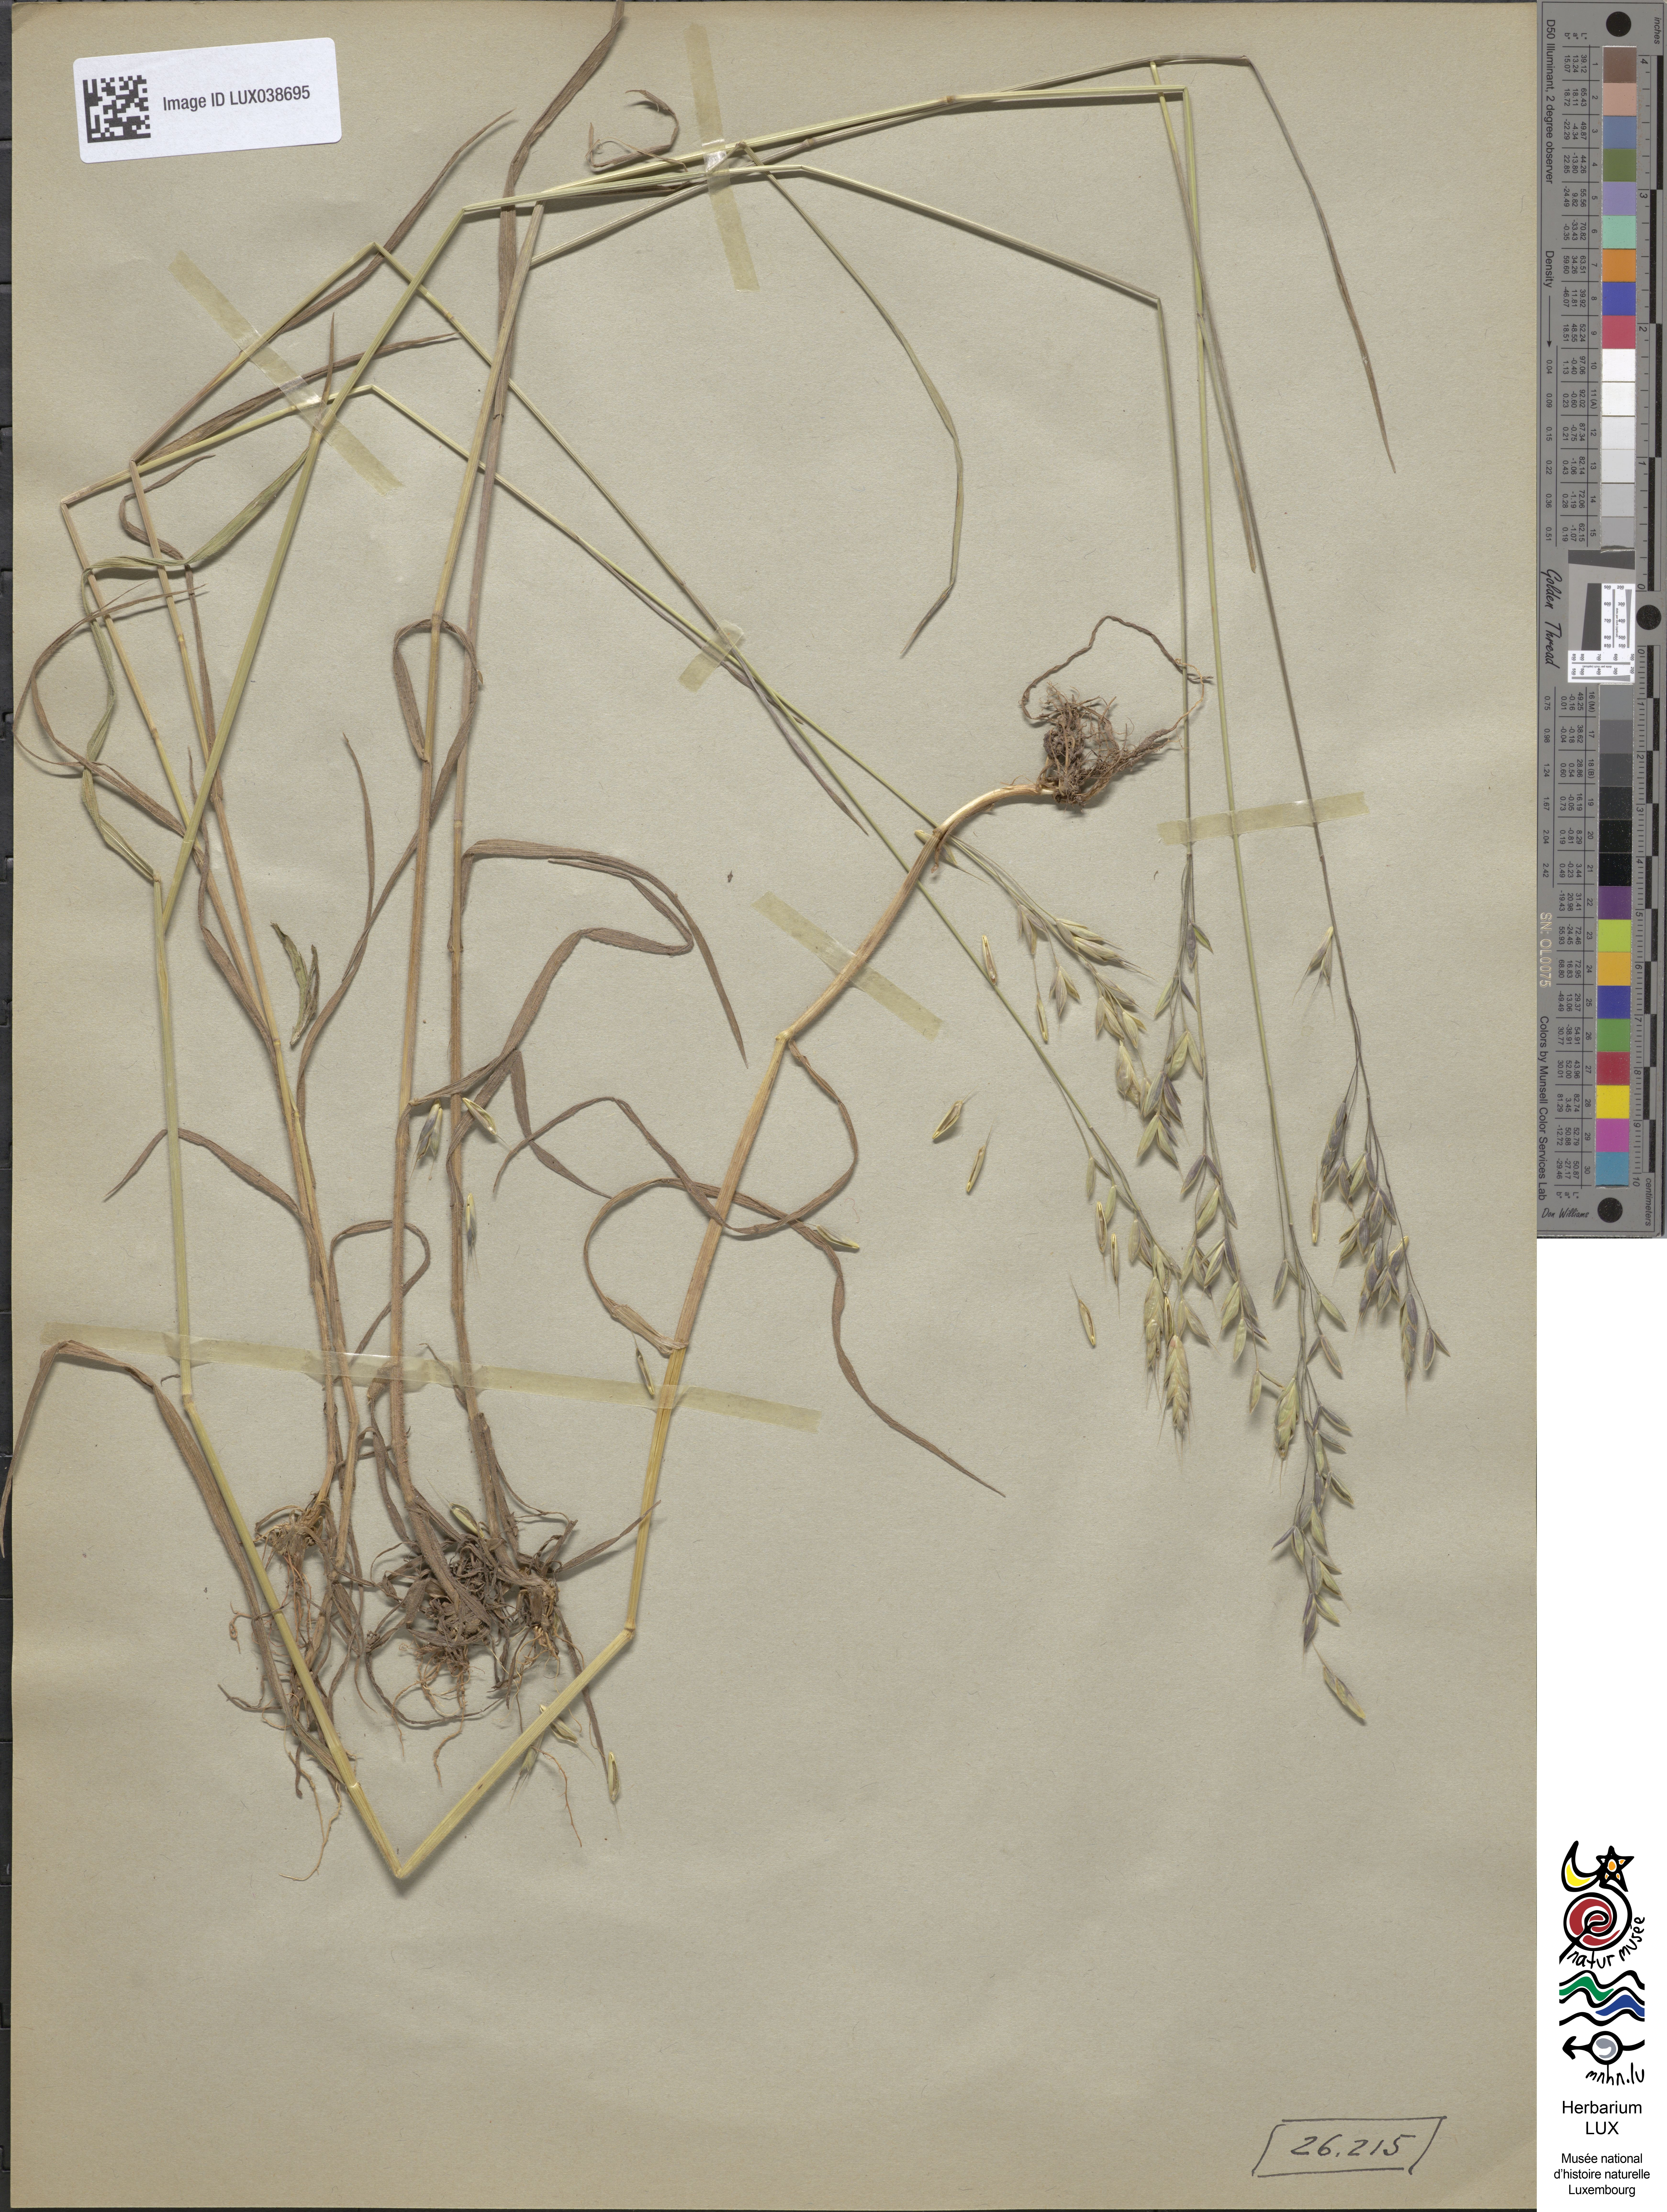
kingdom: Plantae
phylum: Tracheophyta
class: Liliopsida
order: Poales
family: Poaceae
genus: Bromus
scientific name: Bromus commutatus
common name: Meadow brome
